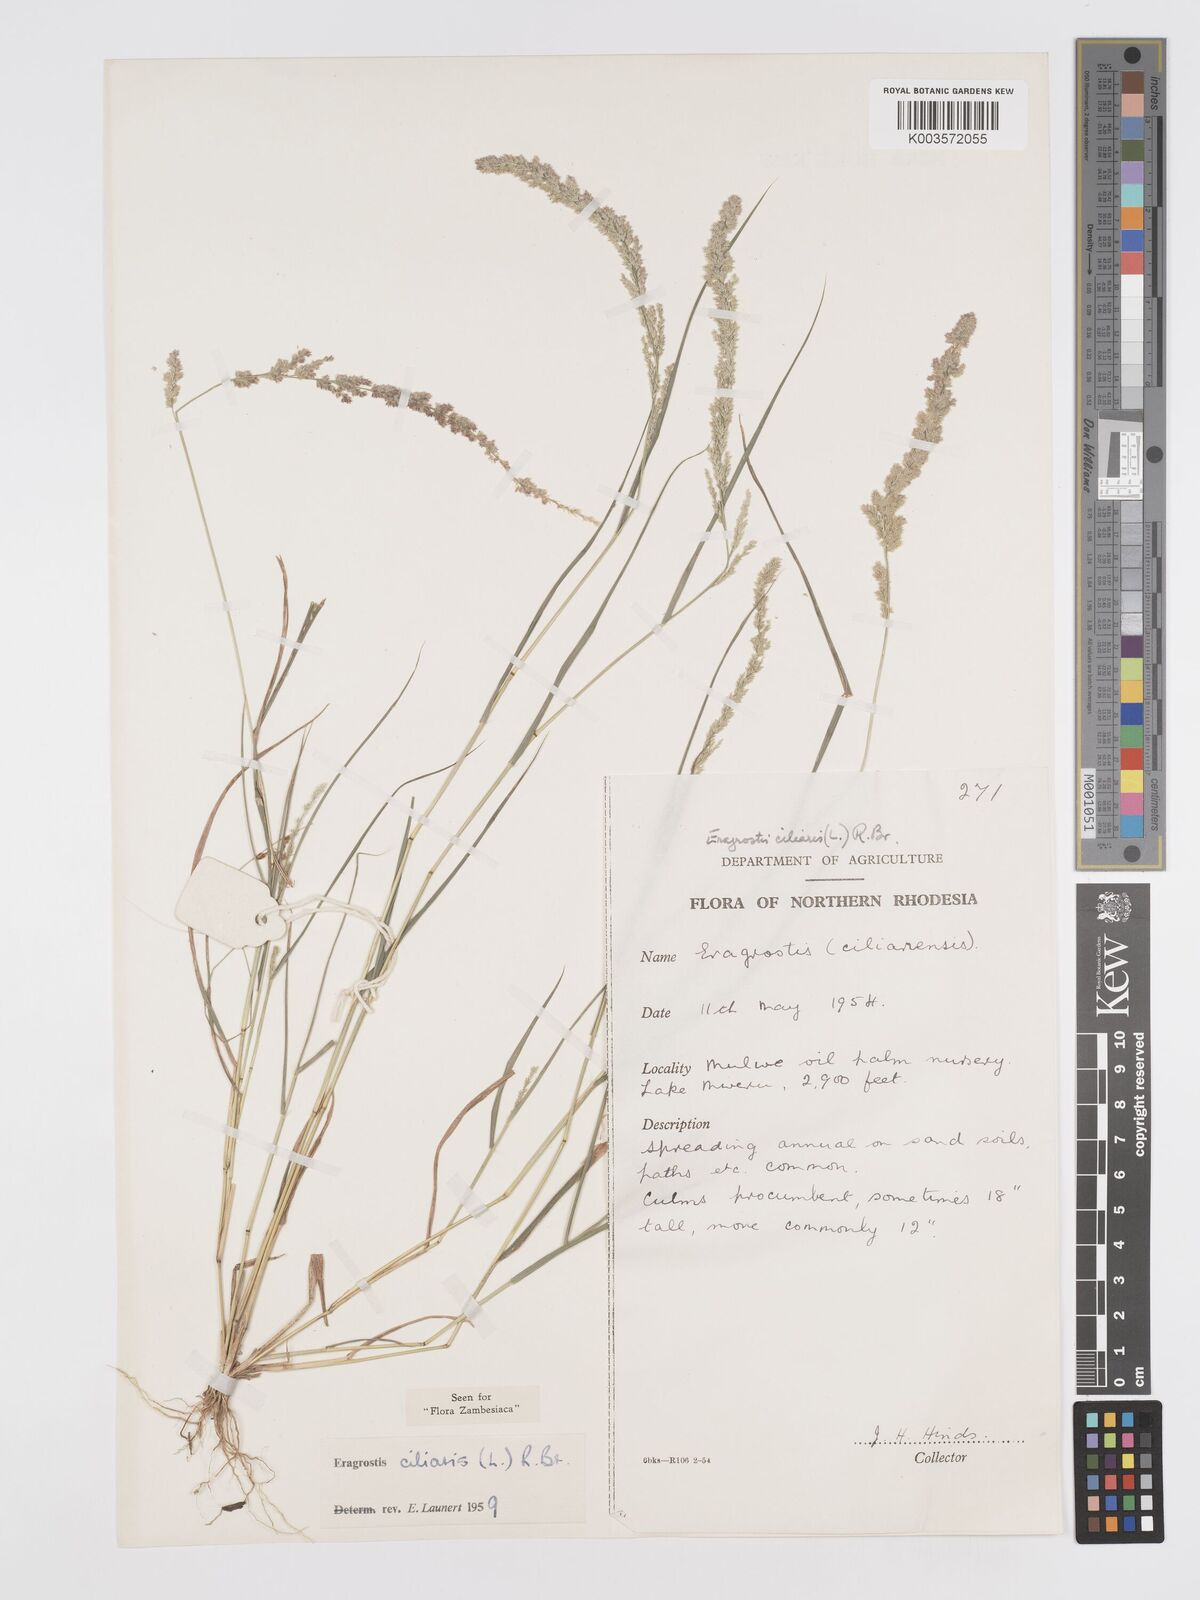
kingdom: Plantae
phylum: Tracheophyta
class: Liliopsida
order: Poales
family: Poaceae
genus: Eragrostis
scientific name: Eragrostis ciliaris
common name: Gophertail lovegrass
